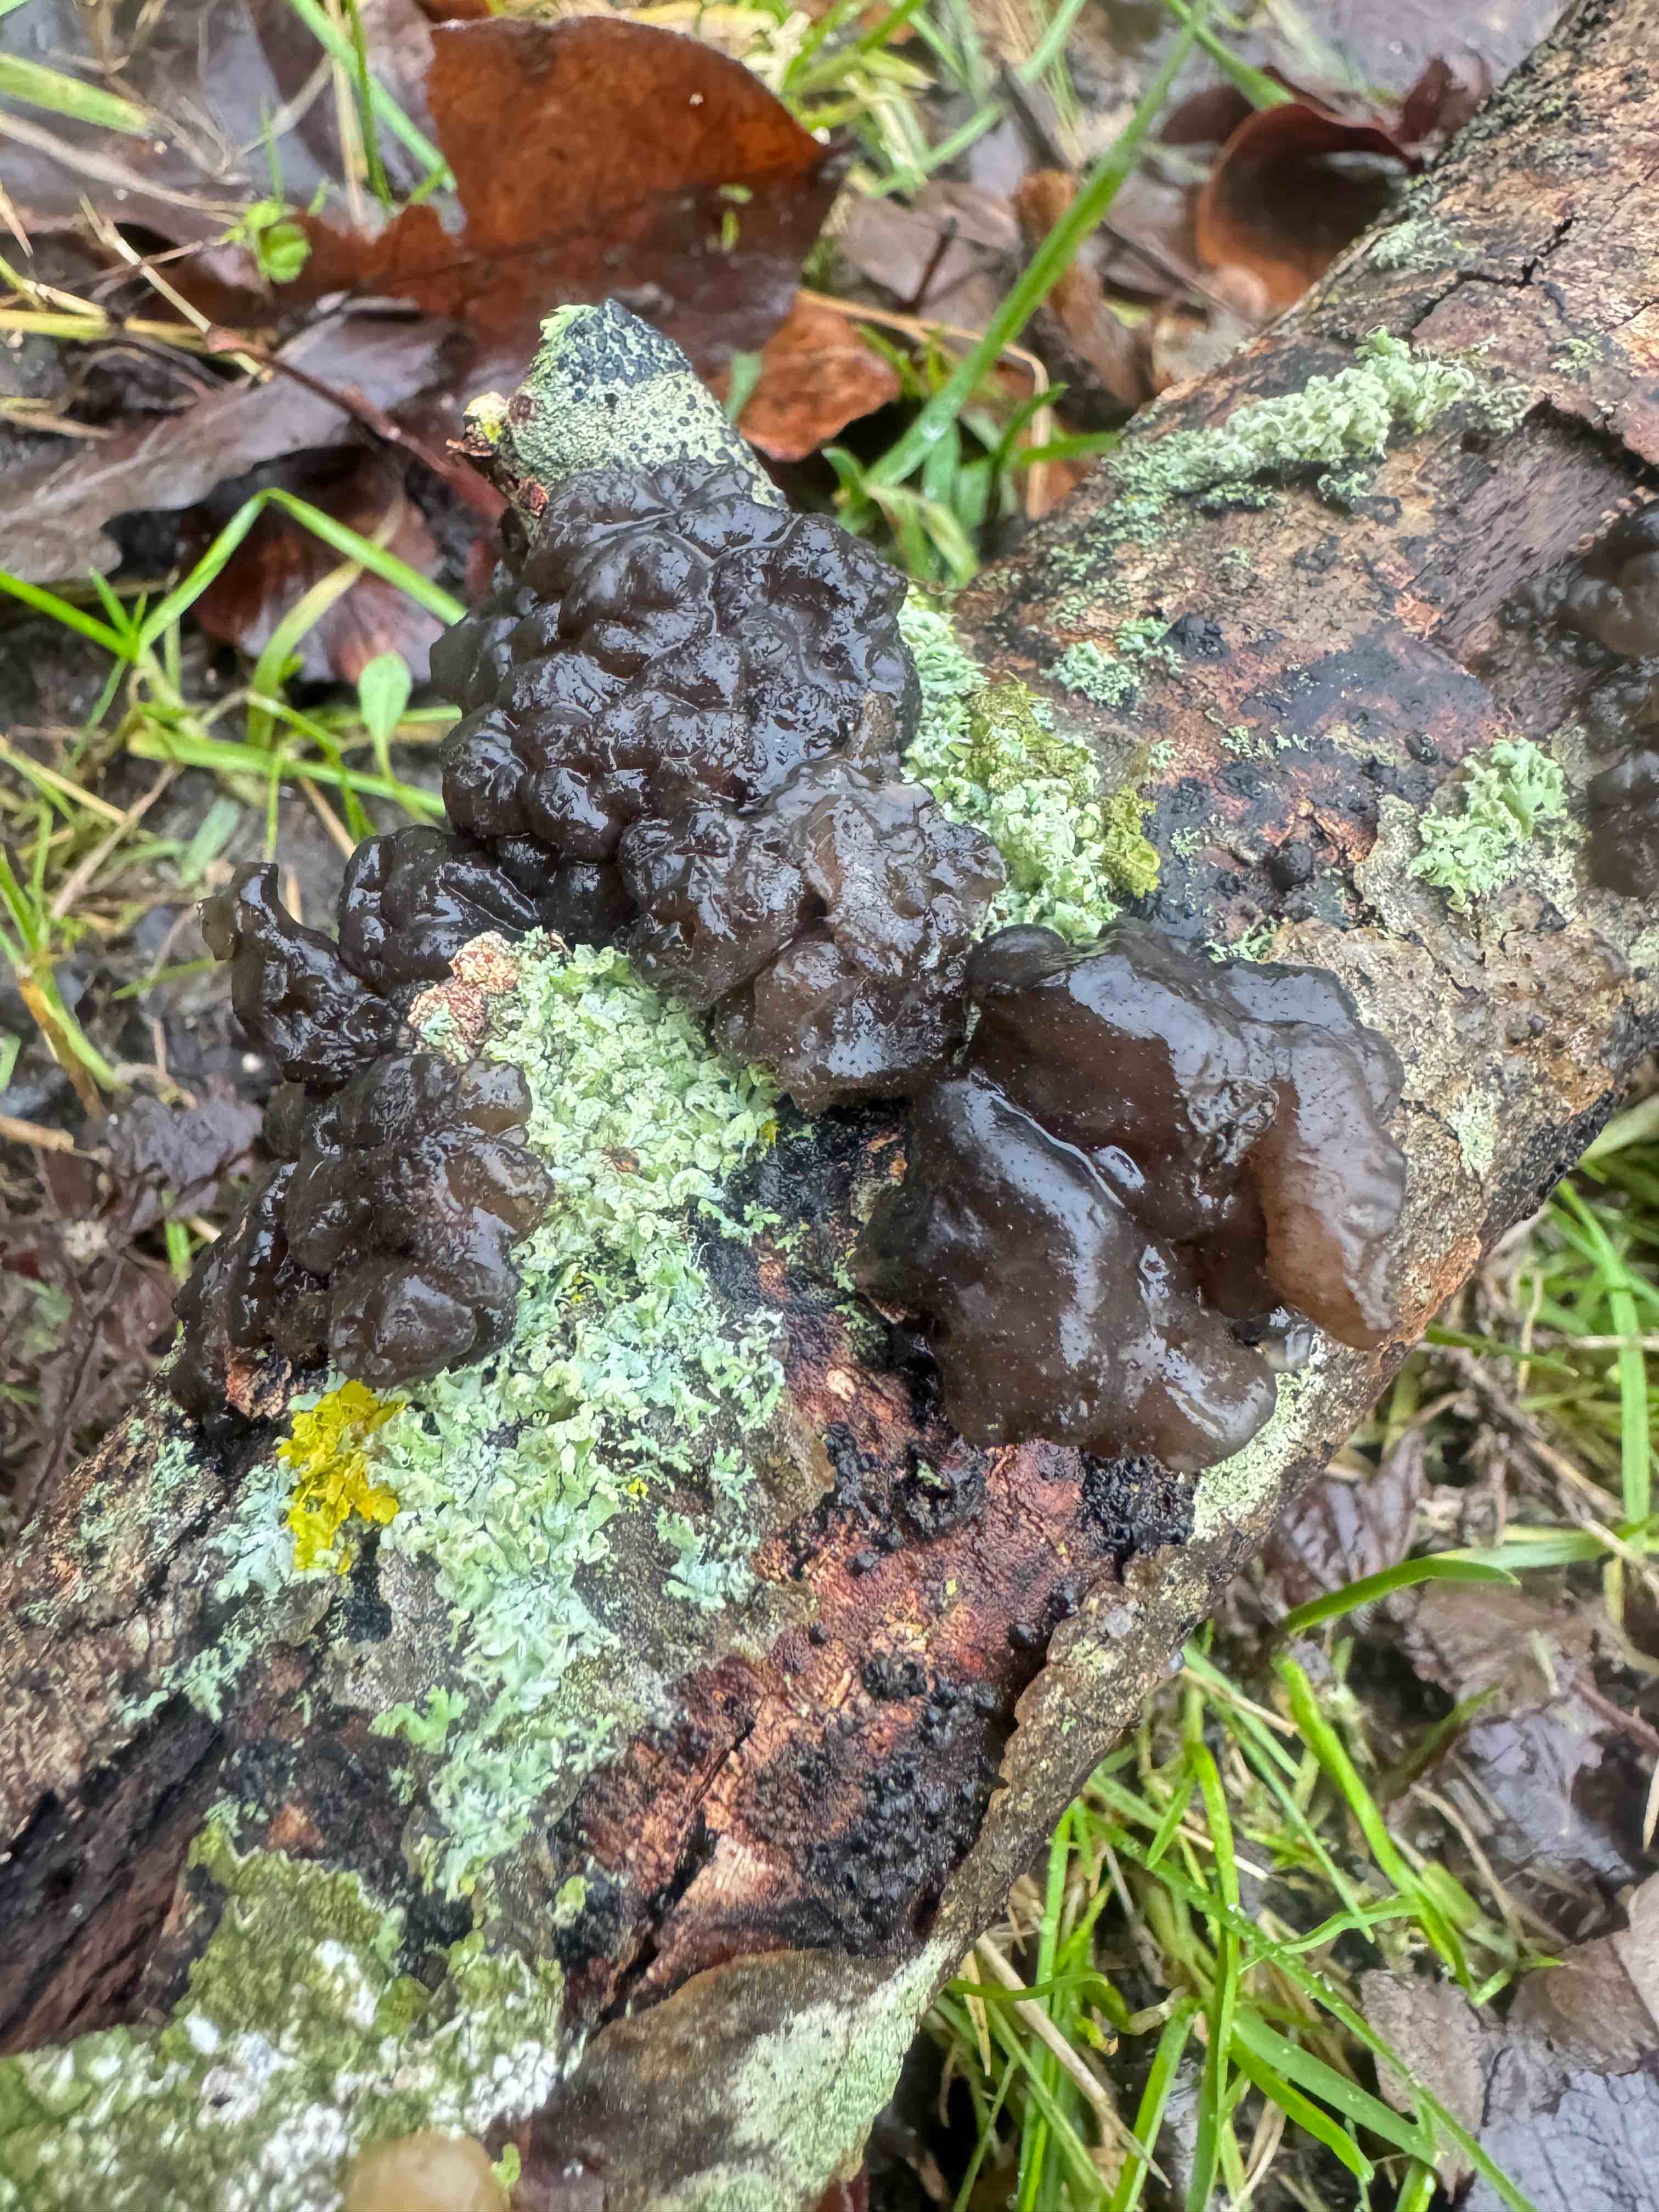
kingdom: Fungi
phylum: Basidiomycota
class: Agaricomycetes
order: Auriculariales
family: Auriculariaceae
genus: Exidia
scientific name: Exidia nigricans
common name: almindelig bævretop
